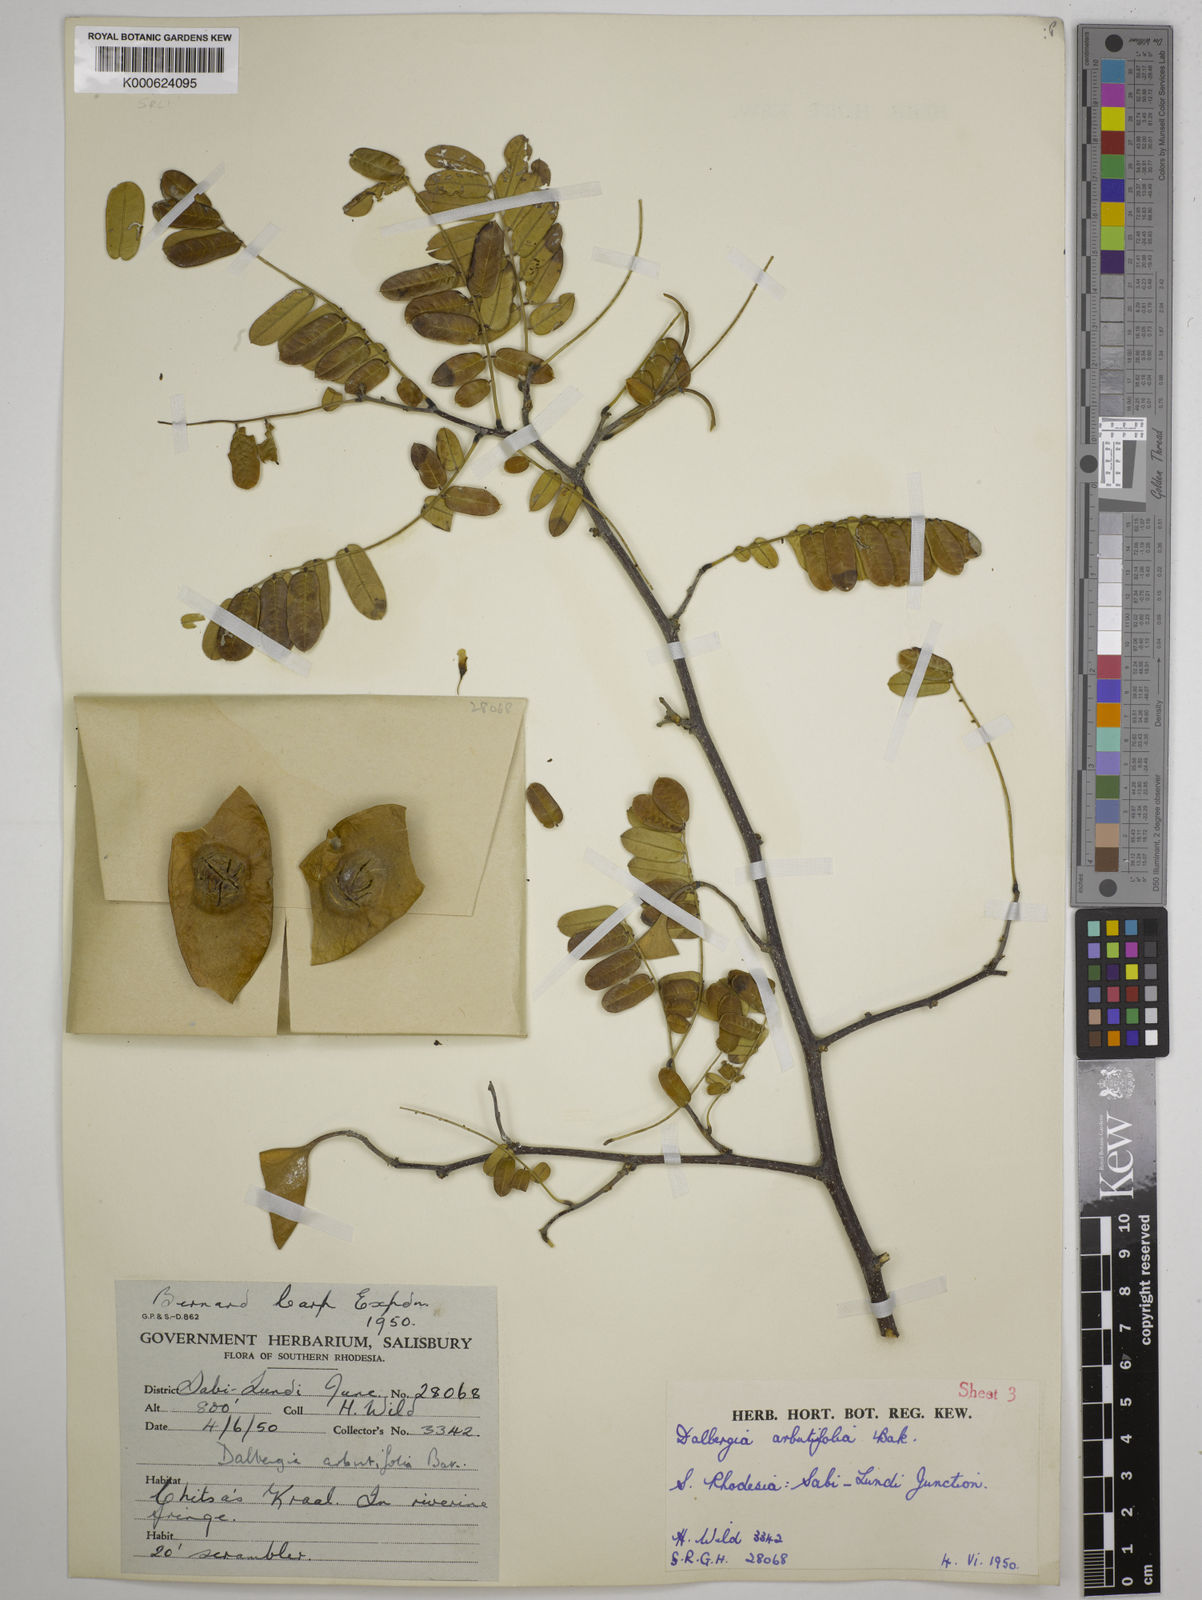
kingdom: Plantae
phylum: Tracheophyta
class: Magnoliopsida
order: Fabales
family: Fabaceae
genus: Dalbergia
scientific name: Dalbergia arbutifolia
